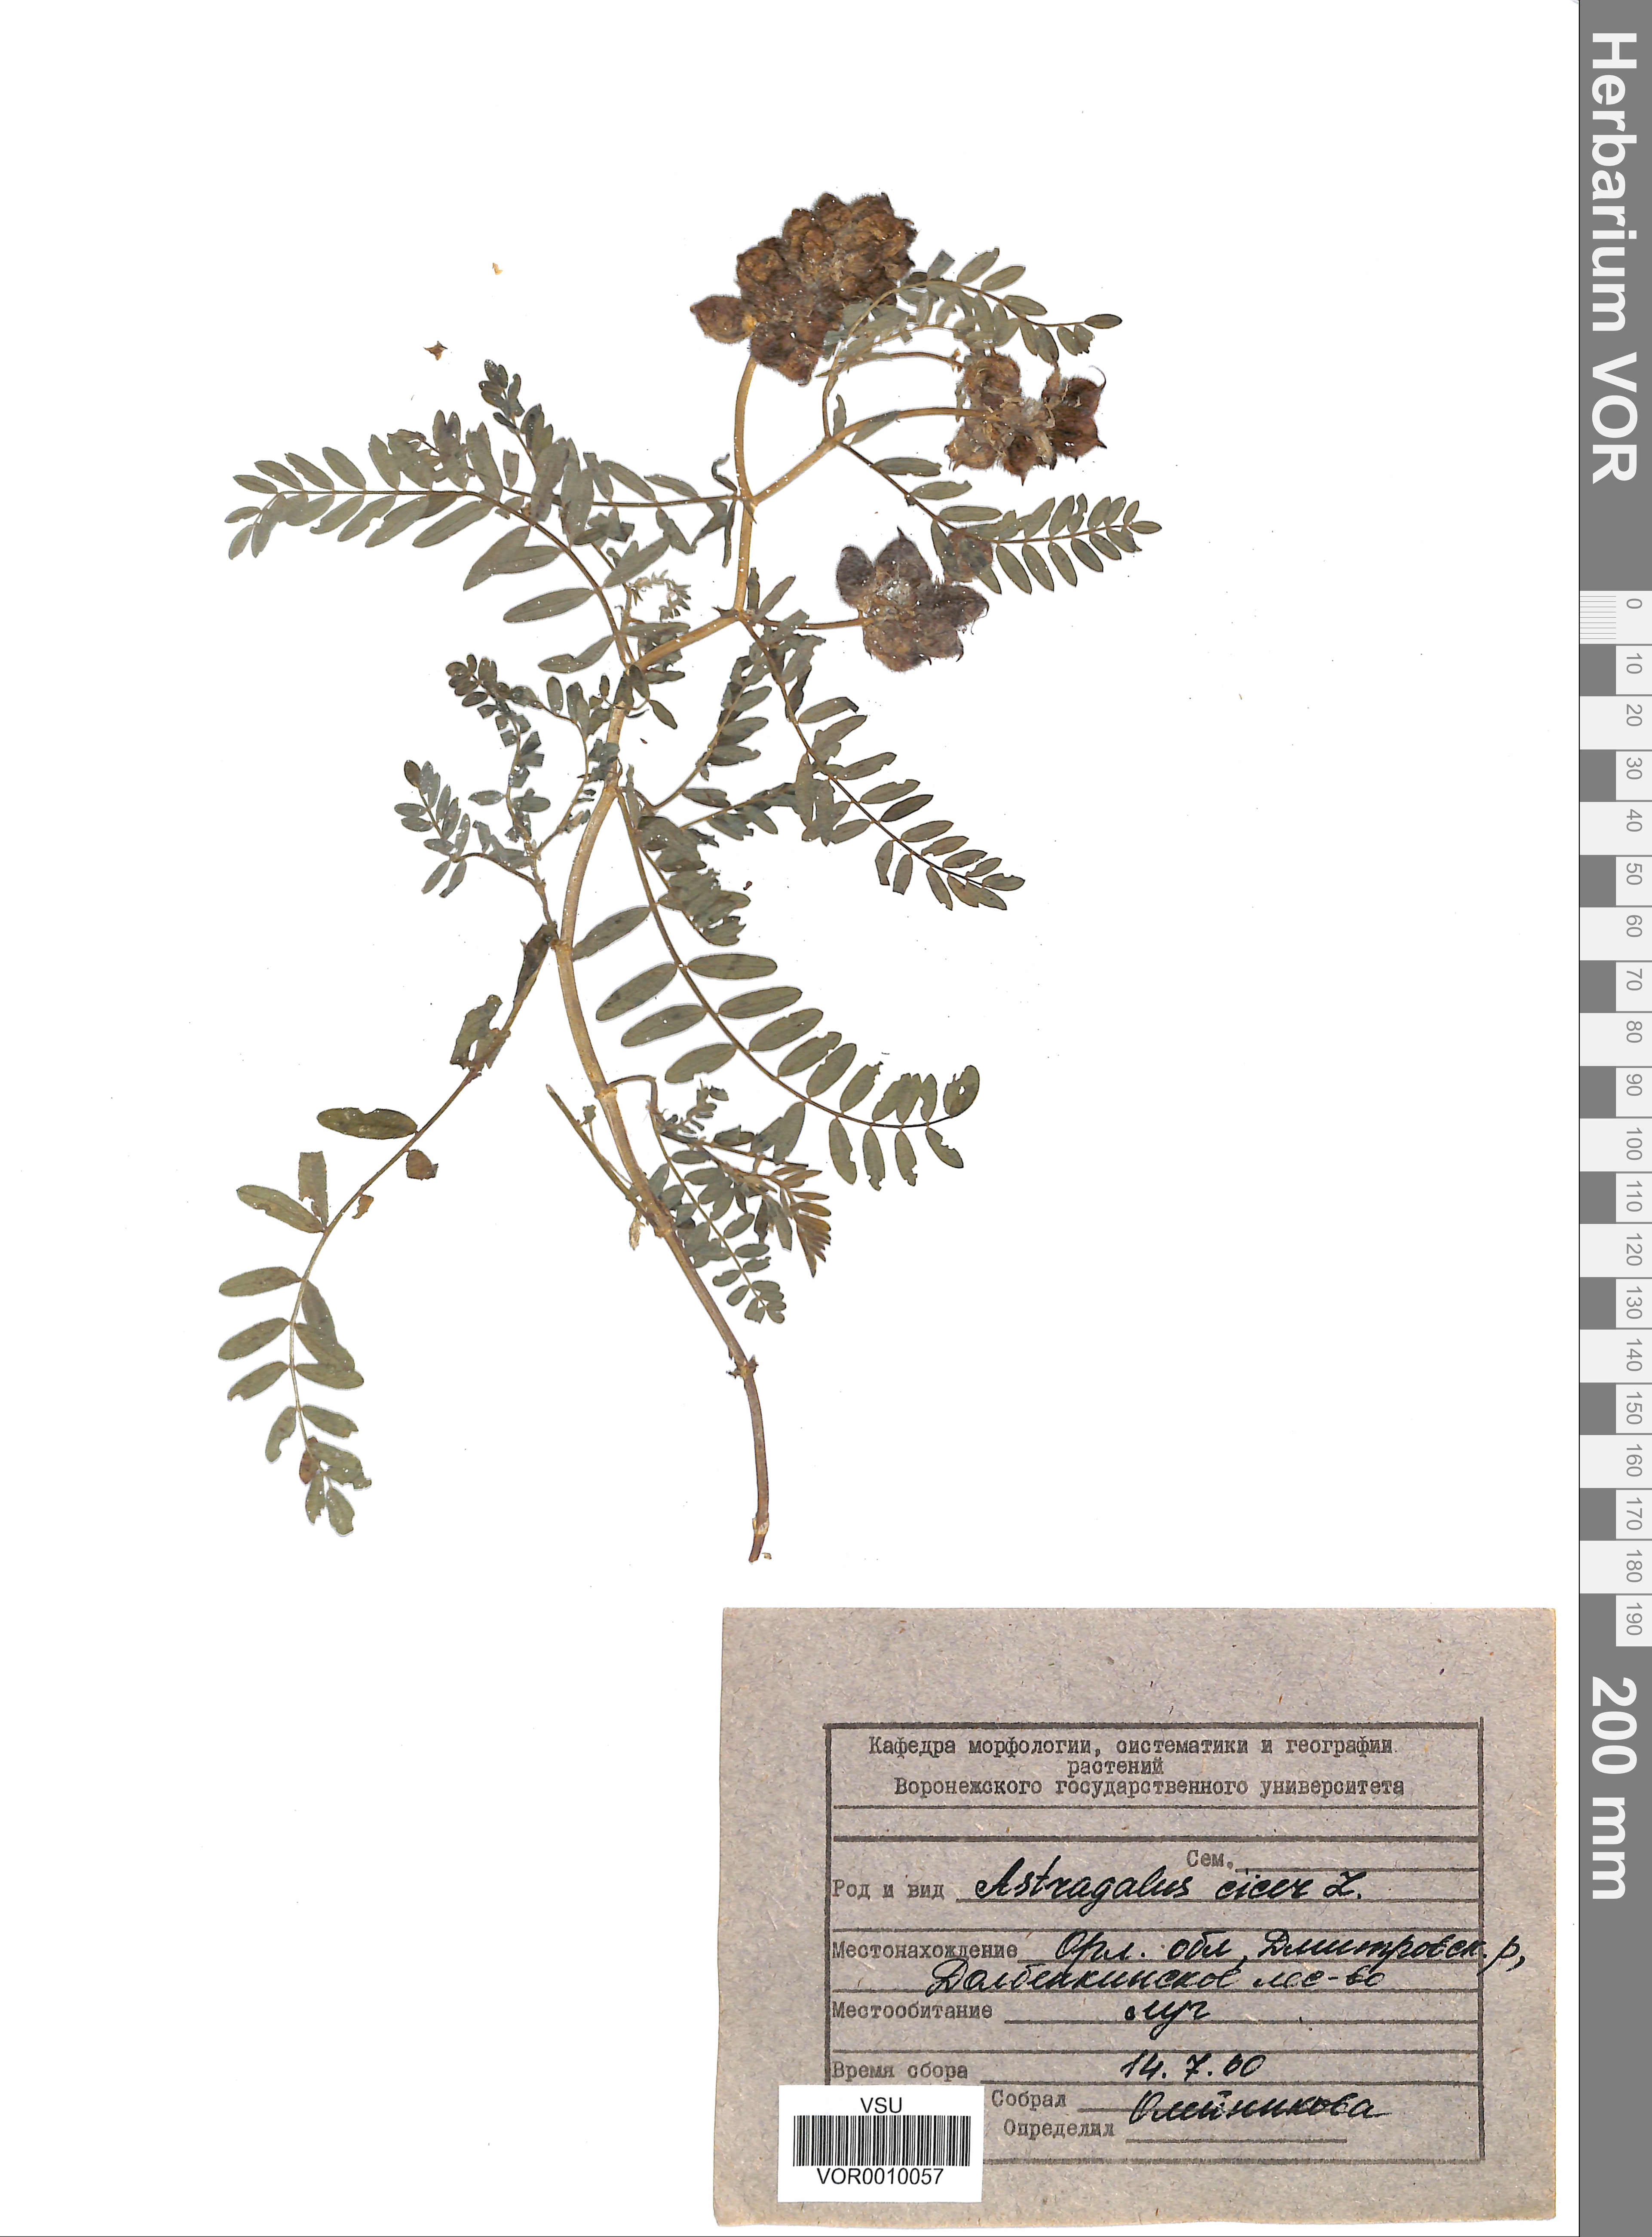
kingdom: Plantae
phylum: Tracheophyta
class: Magnoliopsida
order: Fabales
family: Fabaceae
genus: Astragalus
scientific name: Astragalus cicer
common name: Chick-pea milk-vetch
